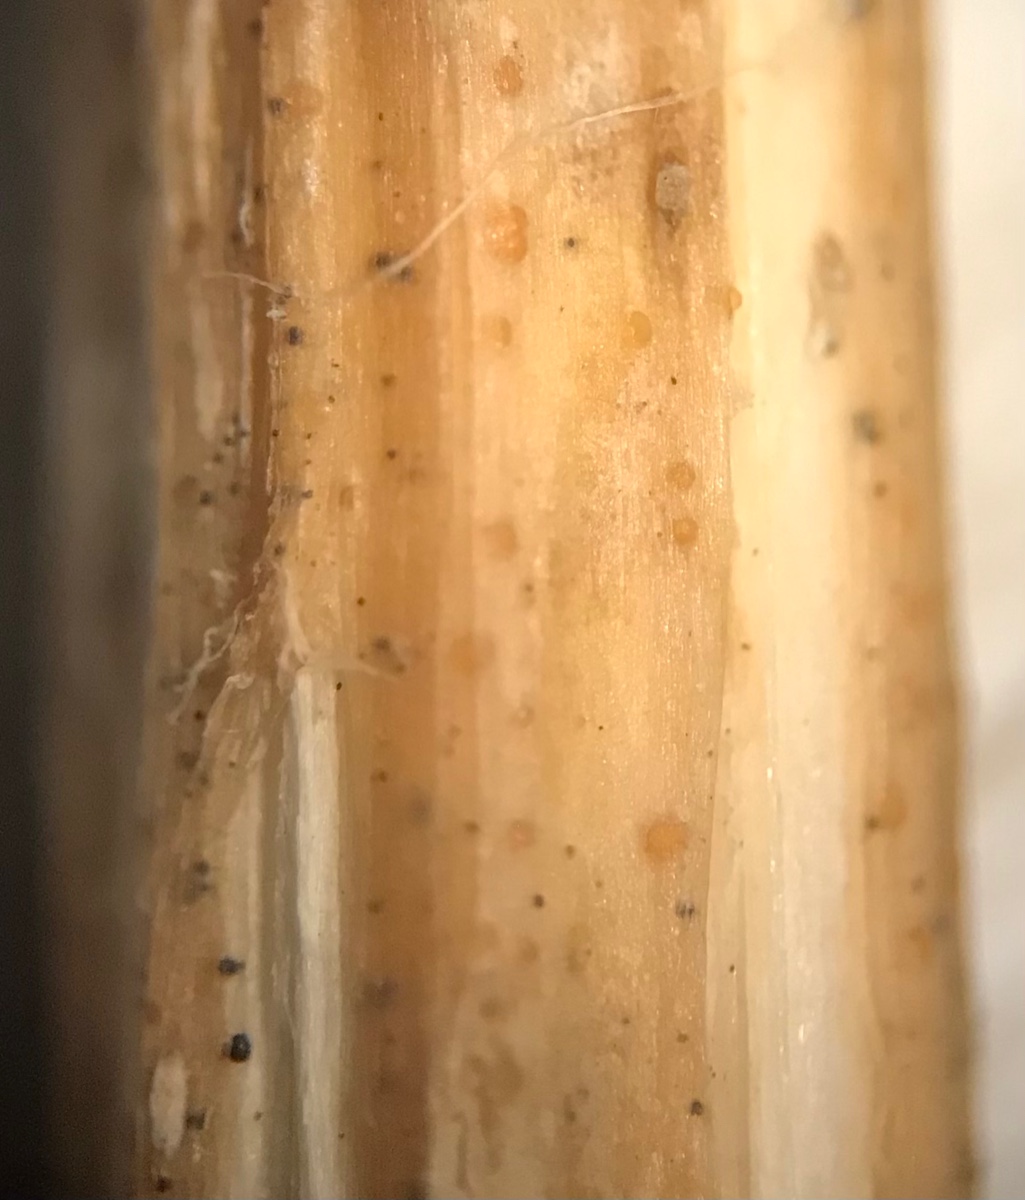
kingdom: Fungi
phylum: Ascomycota
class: Leotiomycetes
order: Helotiales
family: Calloriaceae
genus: Calloria
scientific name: Calloria urticae
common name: nælde-orangeskive
